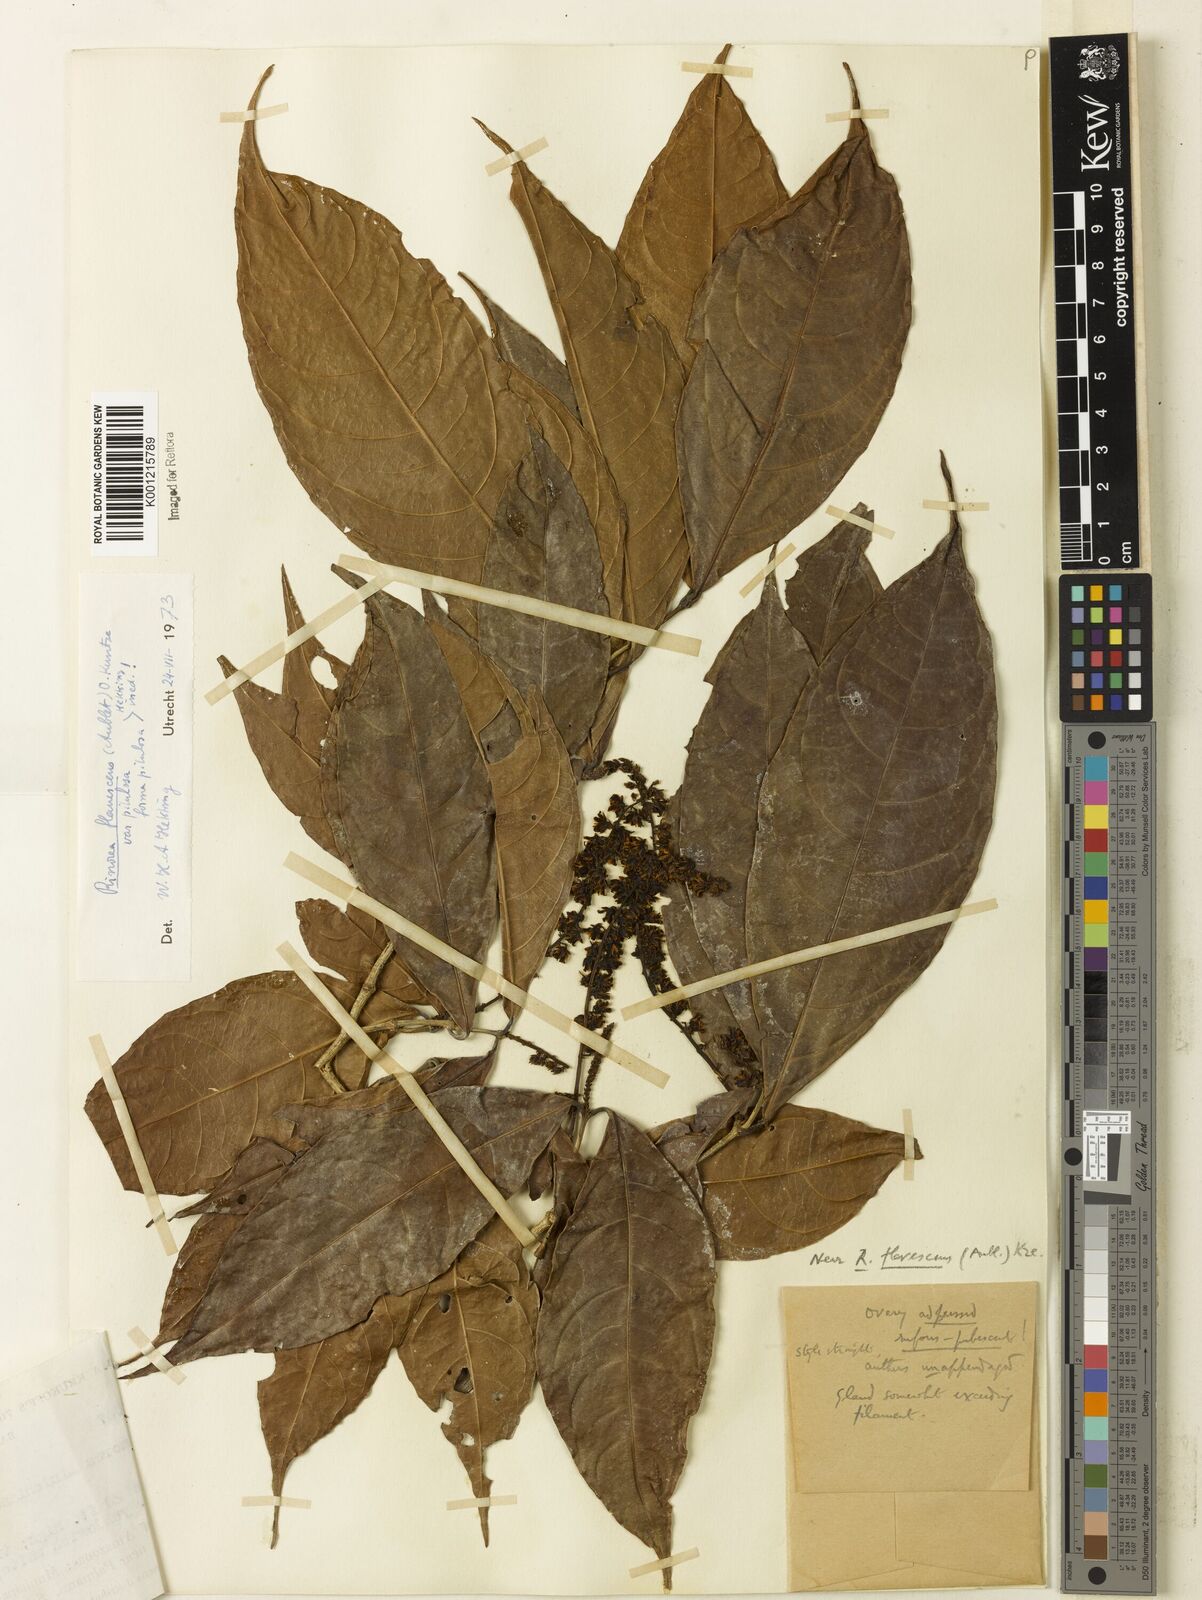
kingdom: Plantae
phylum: Tracheophyta
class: Magnoliopsida
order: Malpighiales
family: Violaceae
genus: Rinorea
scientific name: Rinorea flavescens
